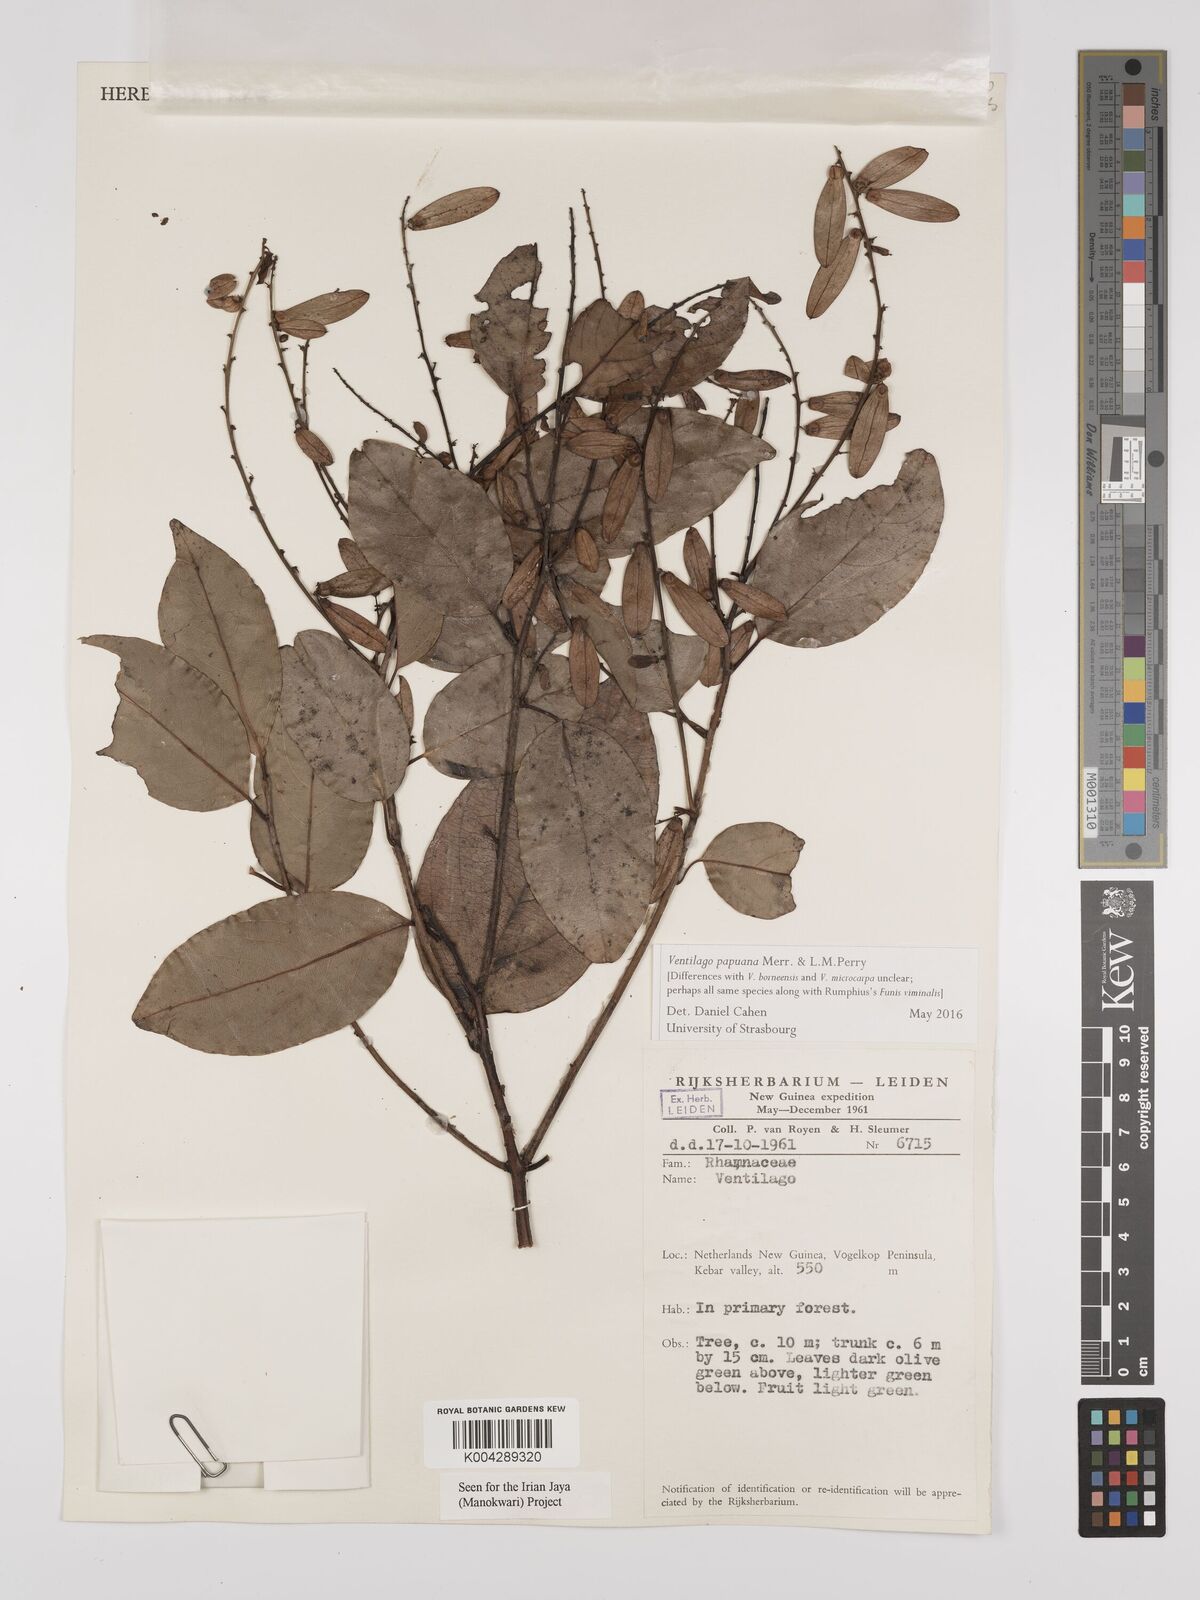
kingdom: Plantae
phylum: Tracheophyta
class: Magnoliopsida
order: Rosales
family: Rhamnaceae
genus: Ventilago
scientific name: Ventilago papuana
